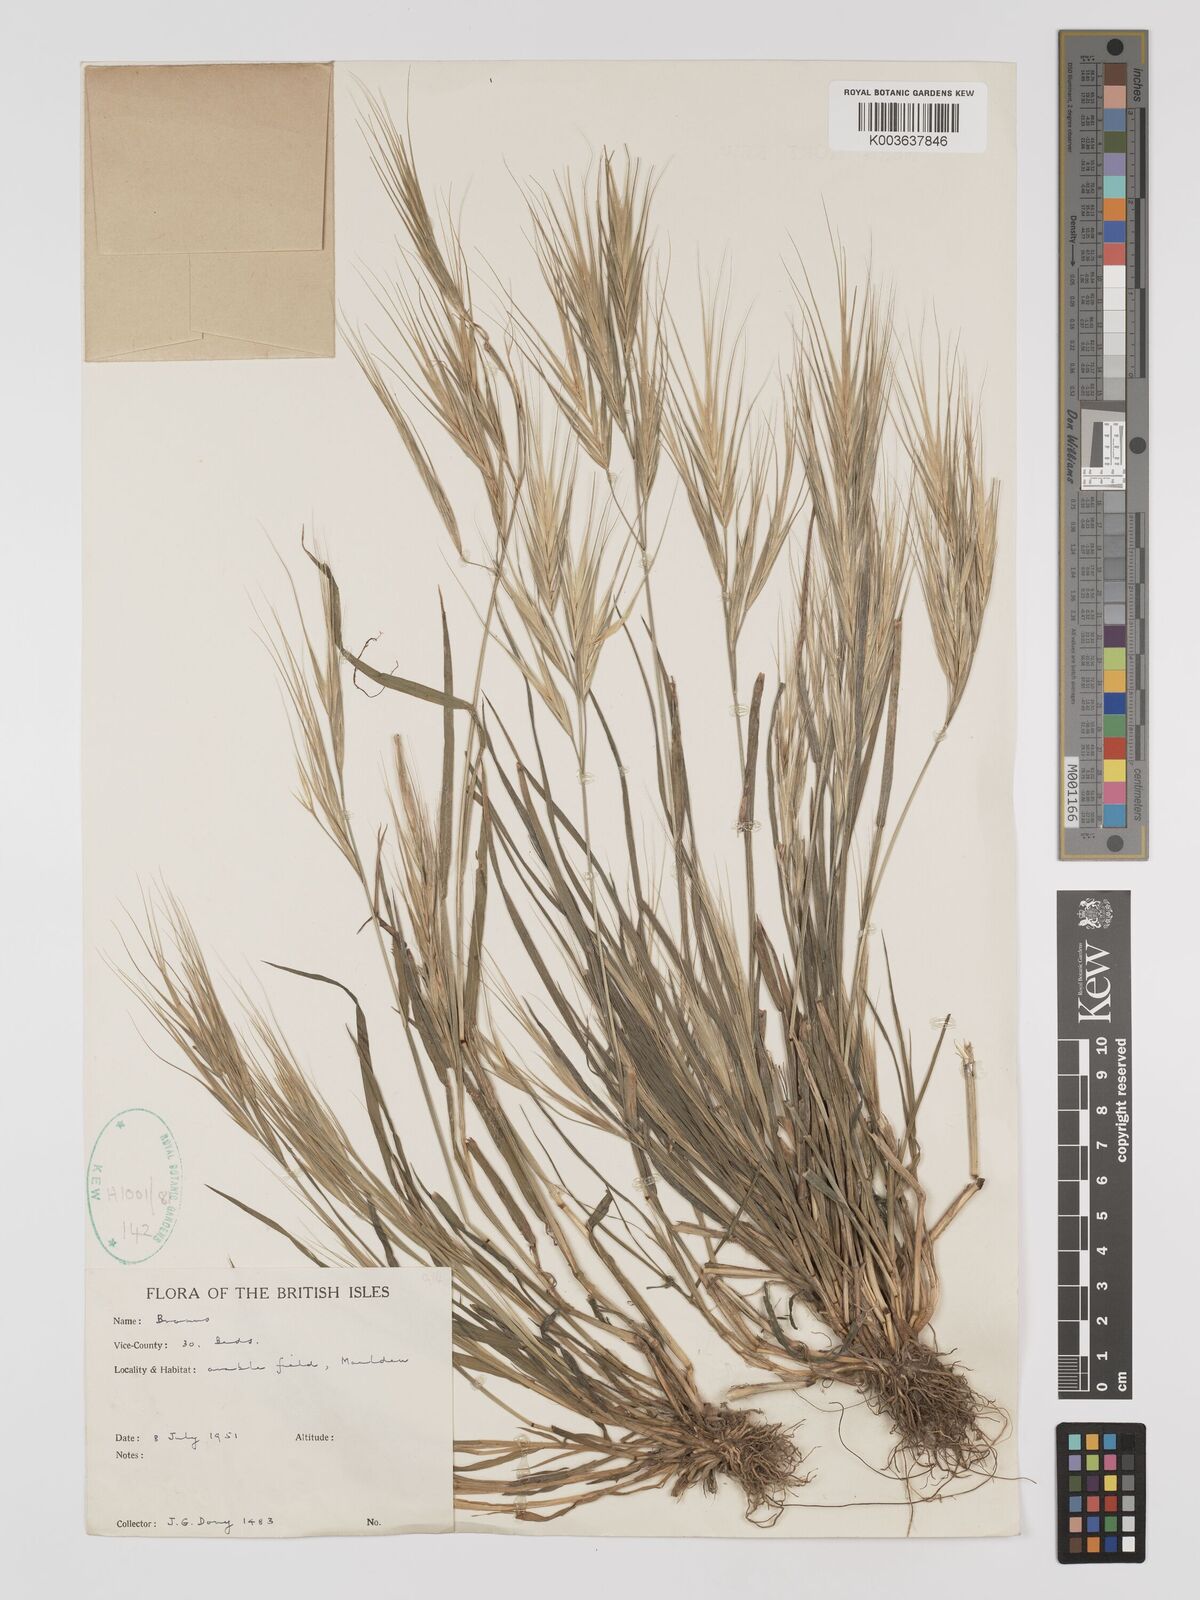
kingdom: Plantae
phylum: Tracheophyta
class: Liliopsida
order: Poales
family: Poaceae
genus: Bromus
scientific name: Bromus
